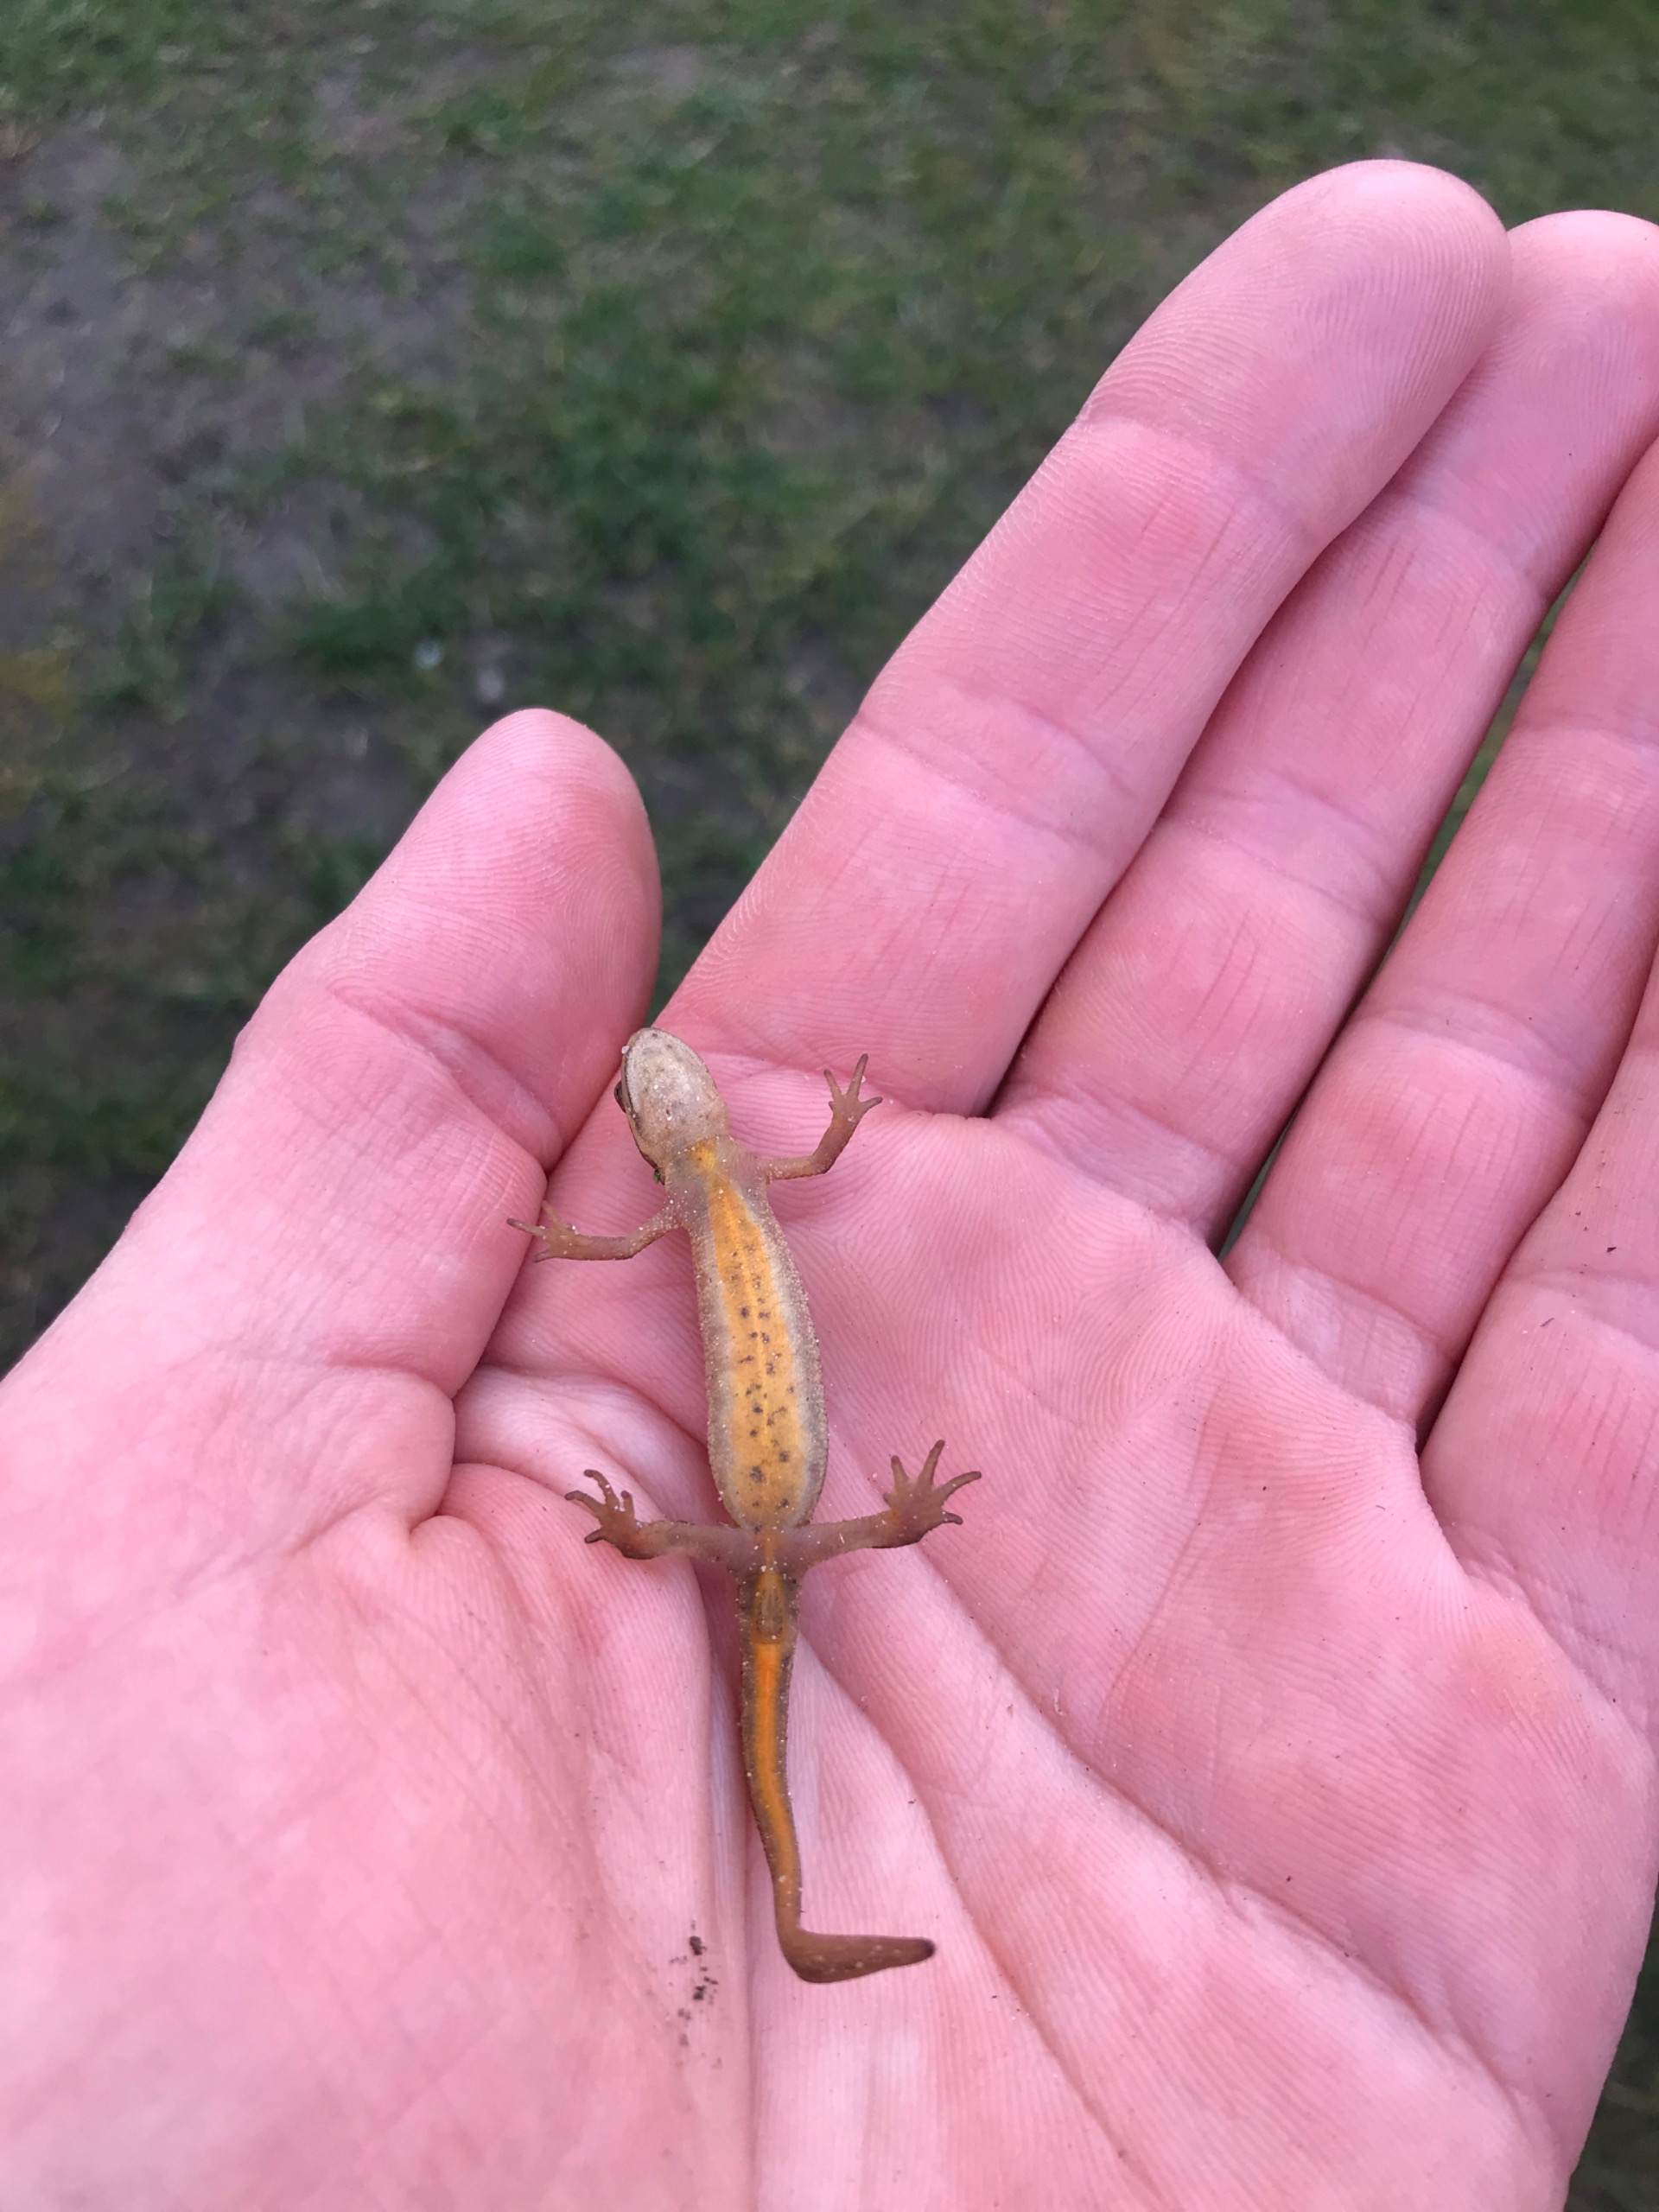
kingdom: Animalia
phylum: Chordata
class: Amphibia
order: Caudata
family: Salamandridae
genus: Lissotriton
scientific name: Lissotriton vulgaris
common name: Lille vandsalamander
